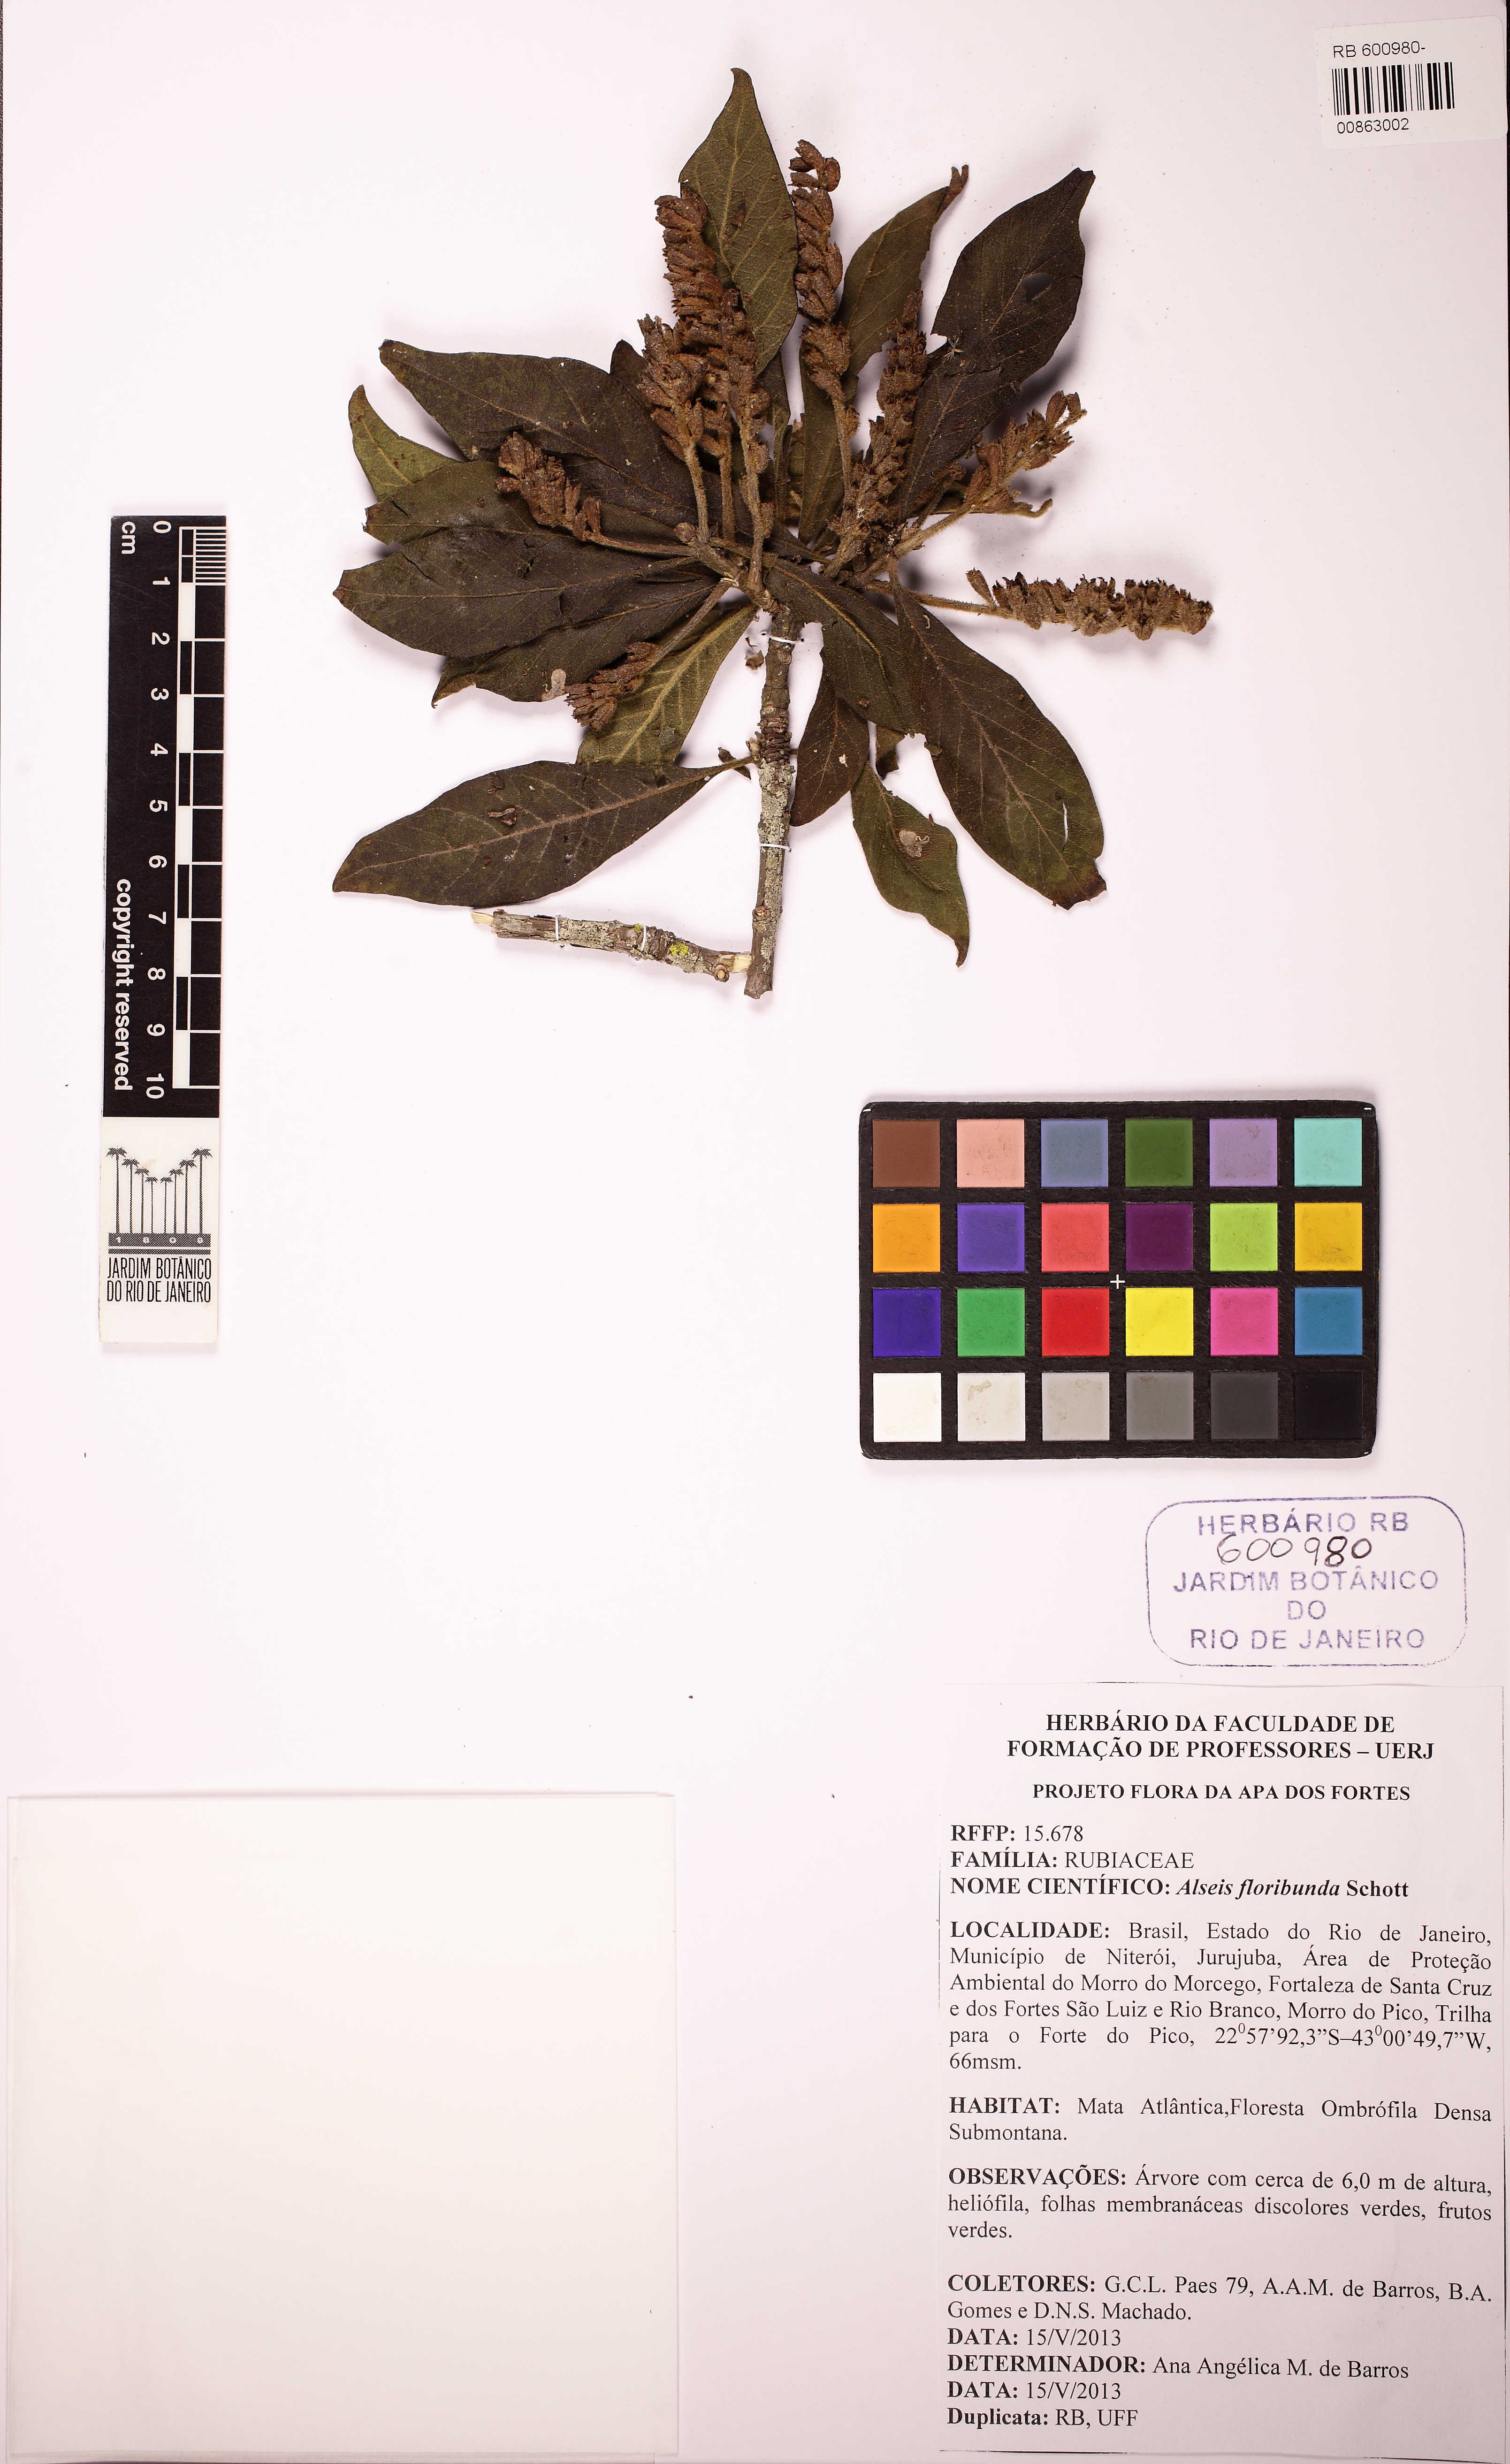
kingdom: Plantae
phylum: Tracheophyta
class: Magnoliopsida
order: Gentianales
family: Rubiaceae
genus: Alseis
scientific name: Alseis floribunda
